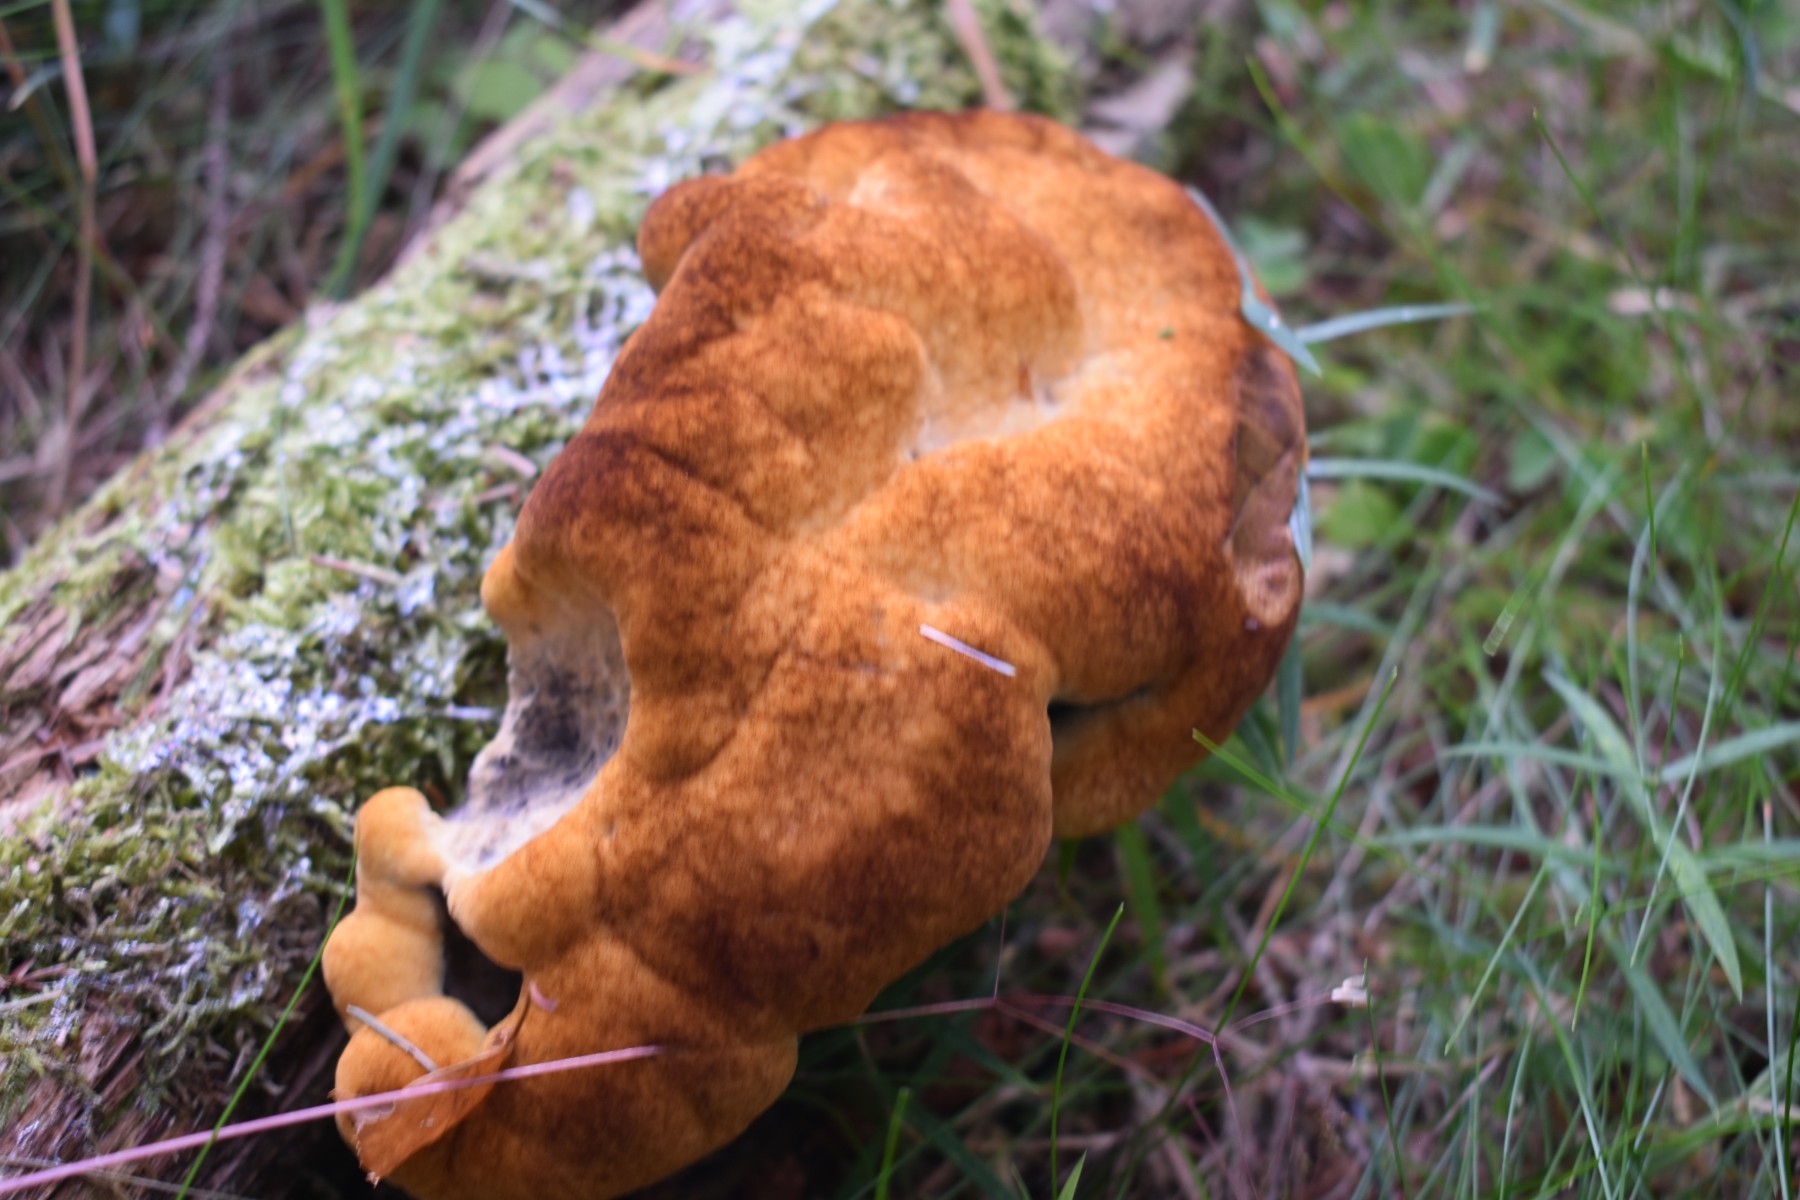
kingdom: Fungi
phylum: Basidiomycota
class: Agaricomycetes
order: Polyporales
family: Laetiporaceae
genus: Phaeolus
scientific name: Phaeolus schweinitzii
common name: brunporesvamp
